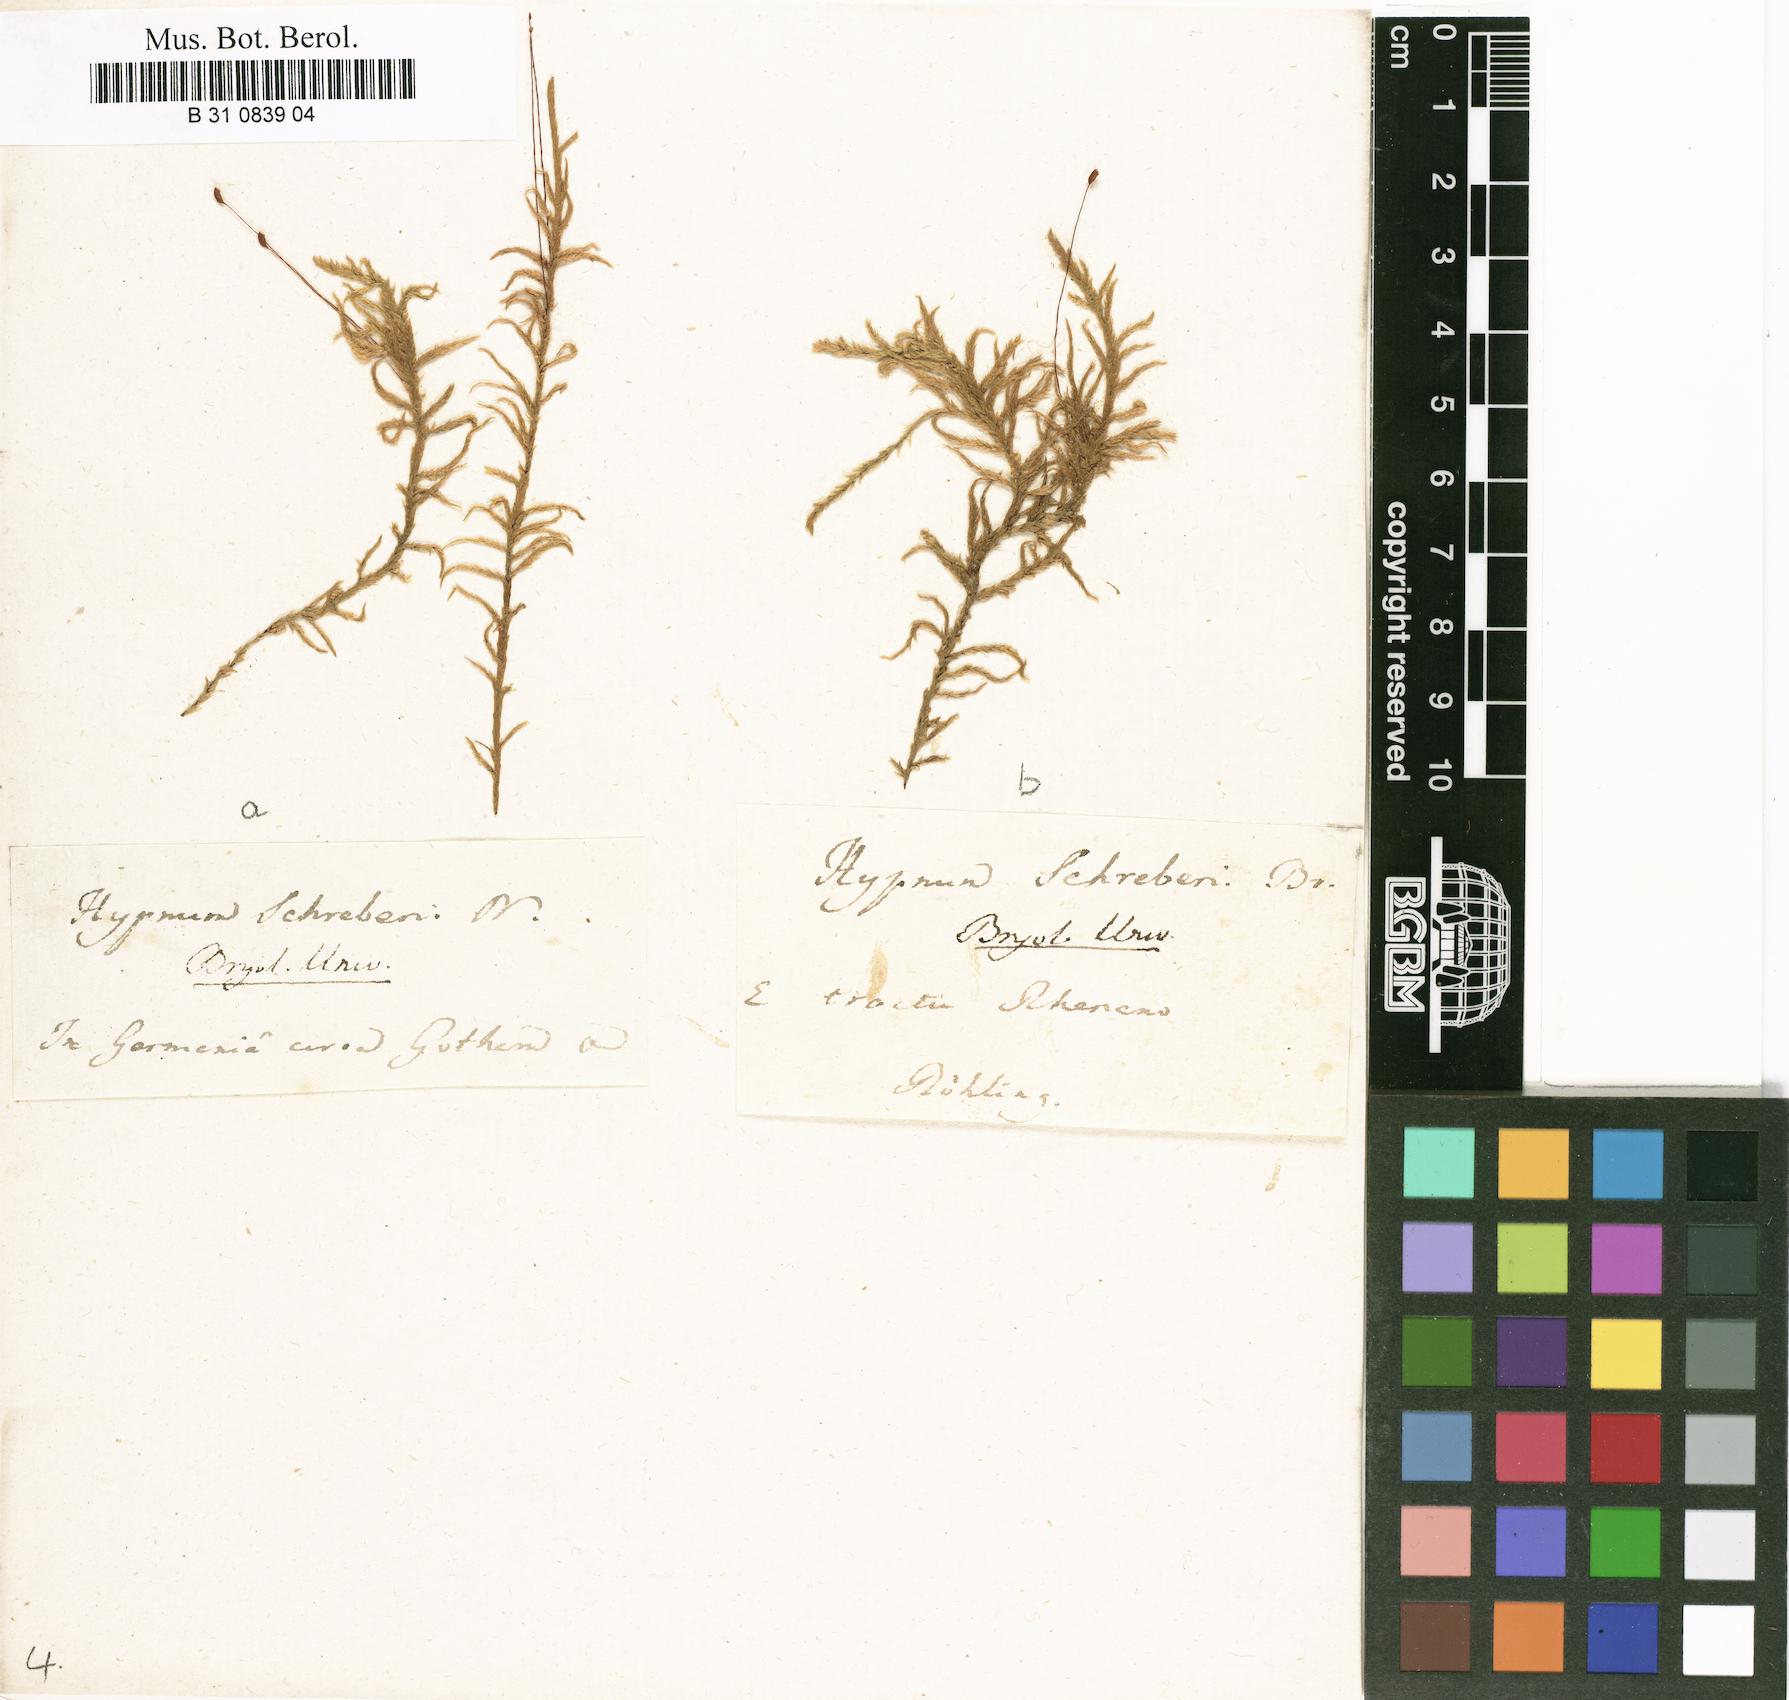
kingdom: Plantae
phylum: Bryophyta
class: Bryopsida
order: Hypnales
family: Hylocomiaceae
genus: Pleurozium
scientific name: Pleurozium schreberi
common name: Red-stemmed feather moss
